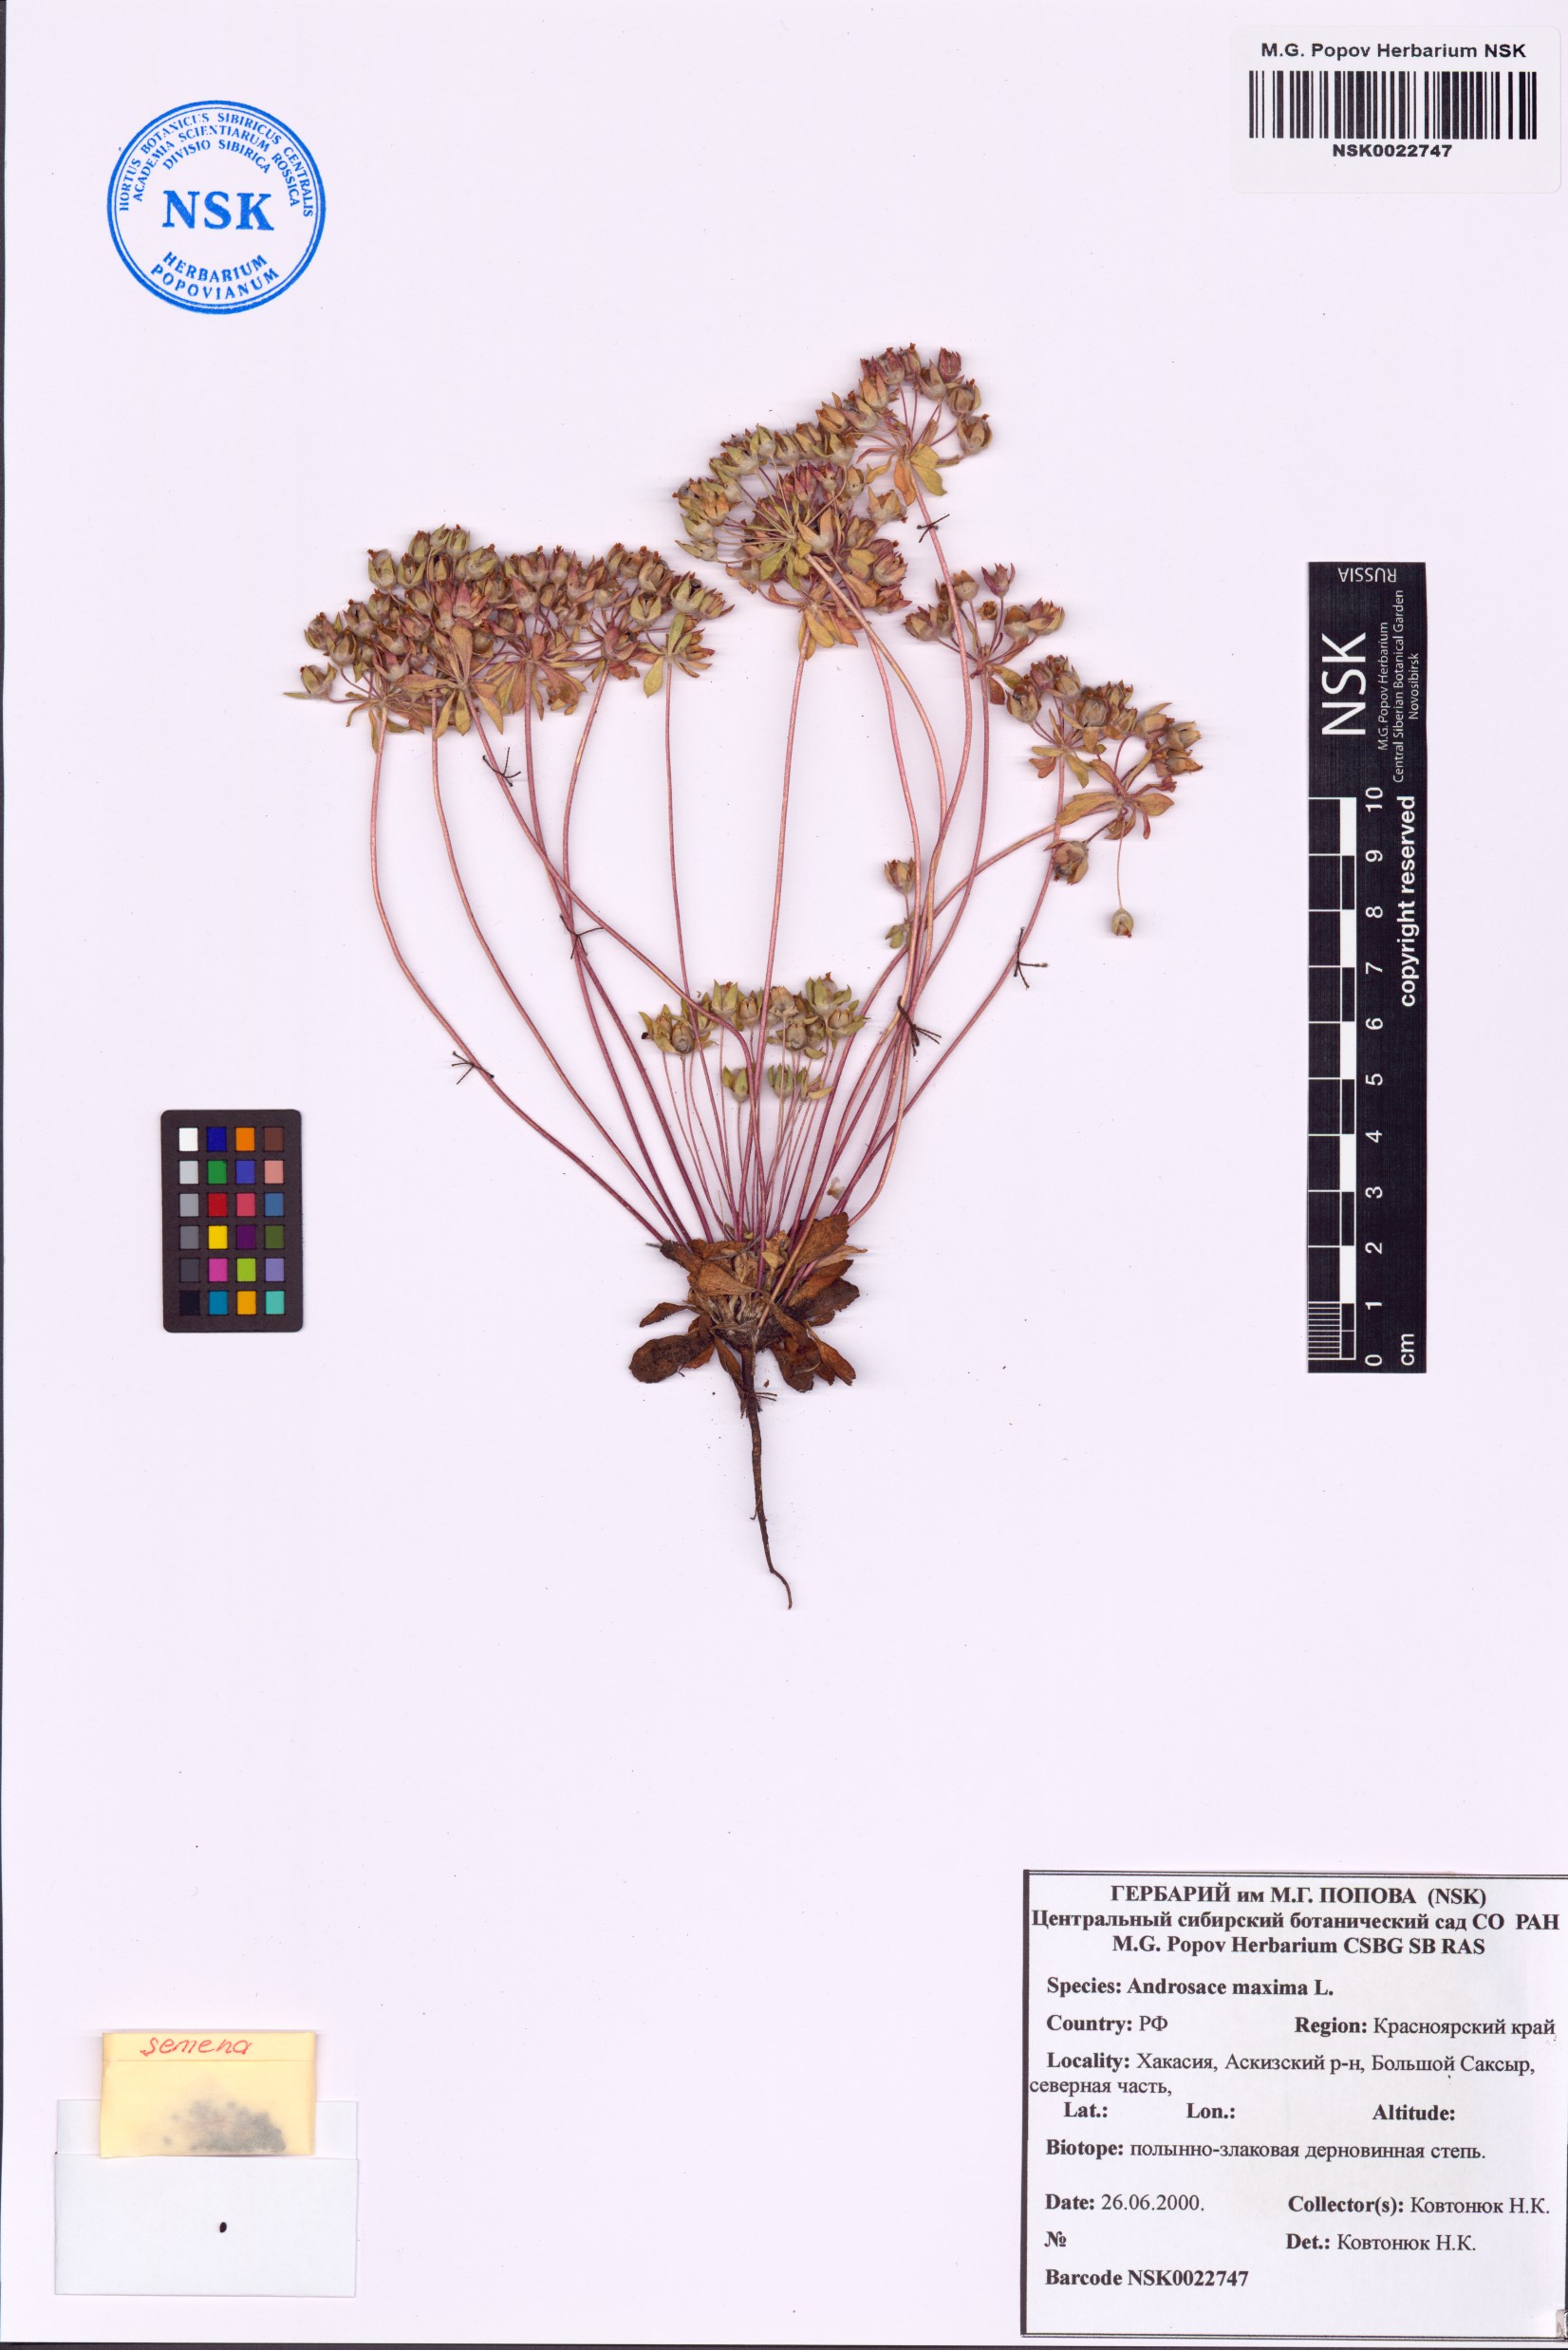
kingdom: Plantae
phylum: Tracheophyta
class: Magnoliopsida
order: Ericales
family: Primulaceae
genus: Androsace
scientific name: Androsace maxima
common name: Annual androsace
